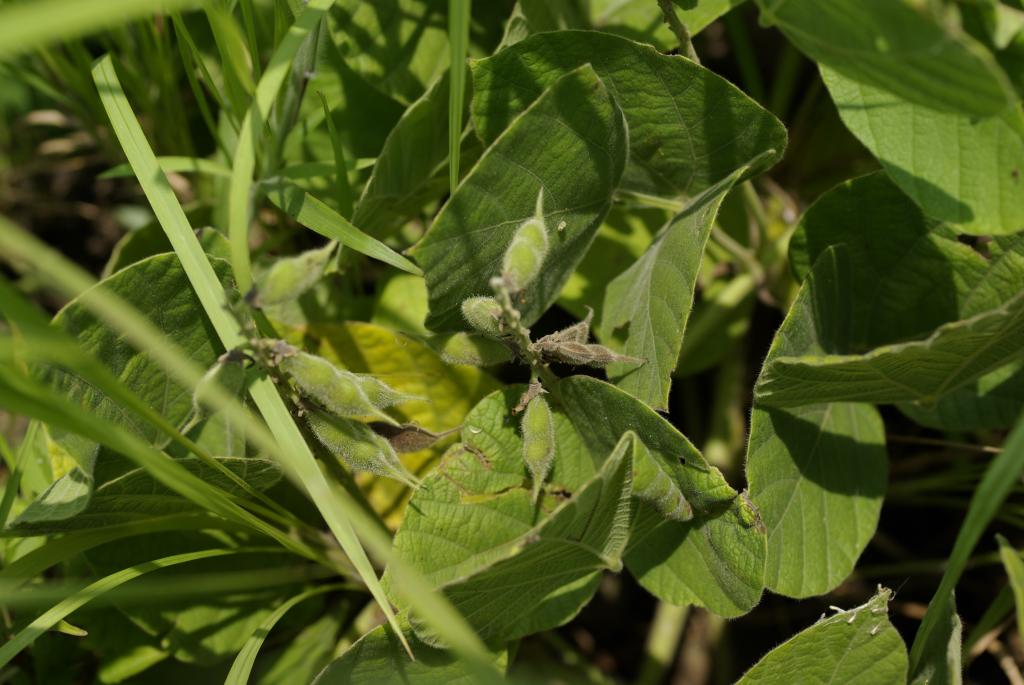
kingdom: Plantae
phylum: Tracheophyta
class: Magnoliopsida
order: Fabales
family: Fabaceae
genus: Rhynchosia
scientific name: Rhynchosia rothii
